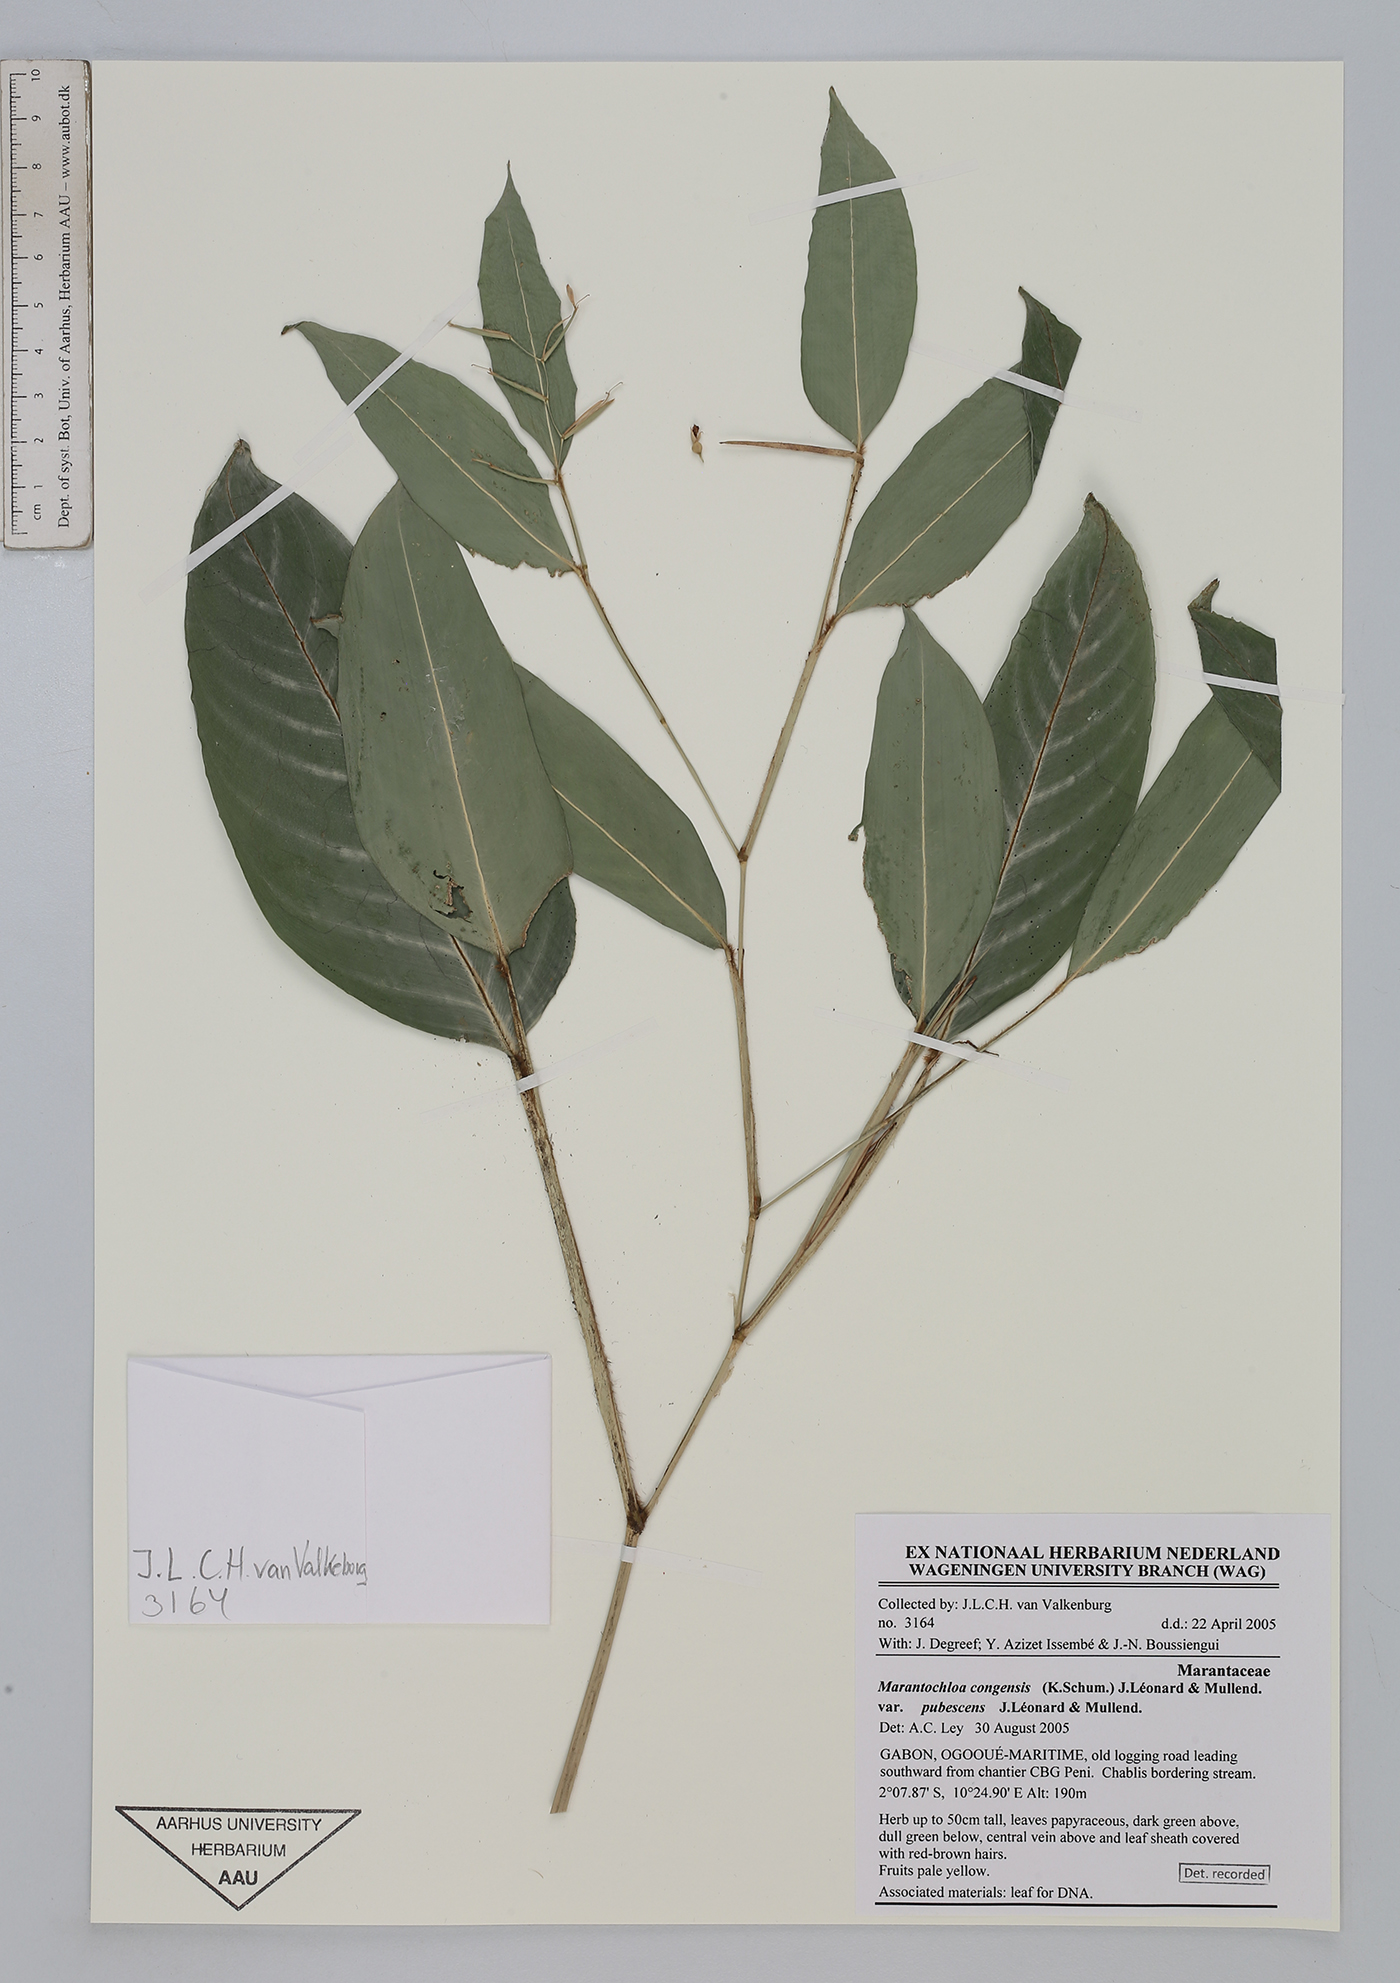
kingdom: Plantae
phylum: Tracheophyta
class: Liliopsida
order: Zingiberales
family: Marantaceae
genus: Marantochloa
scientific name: Marantochloa congensis
